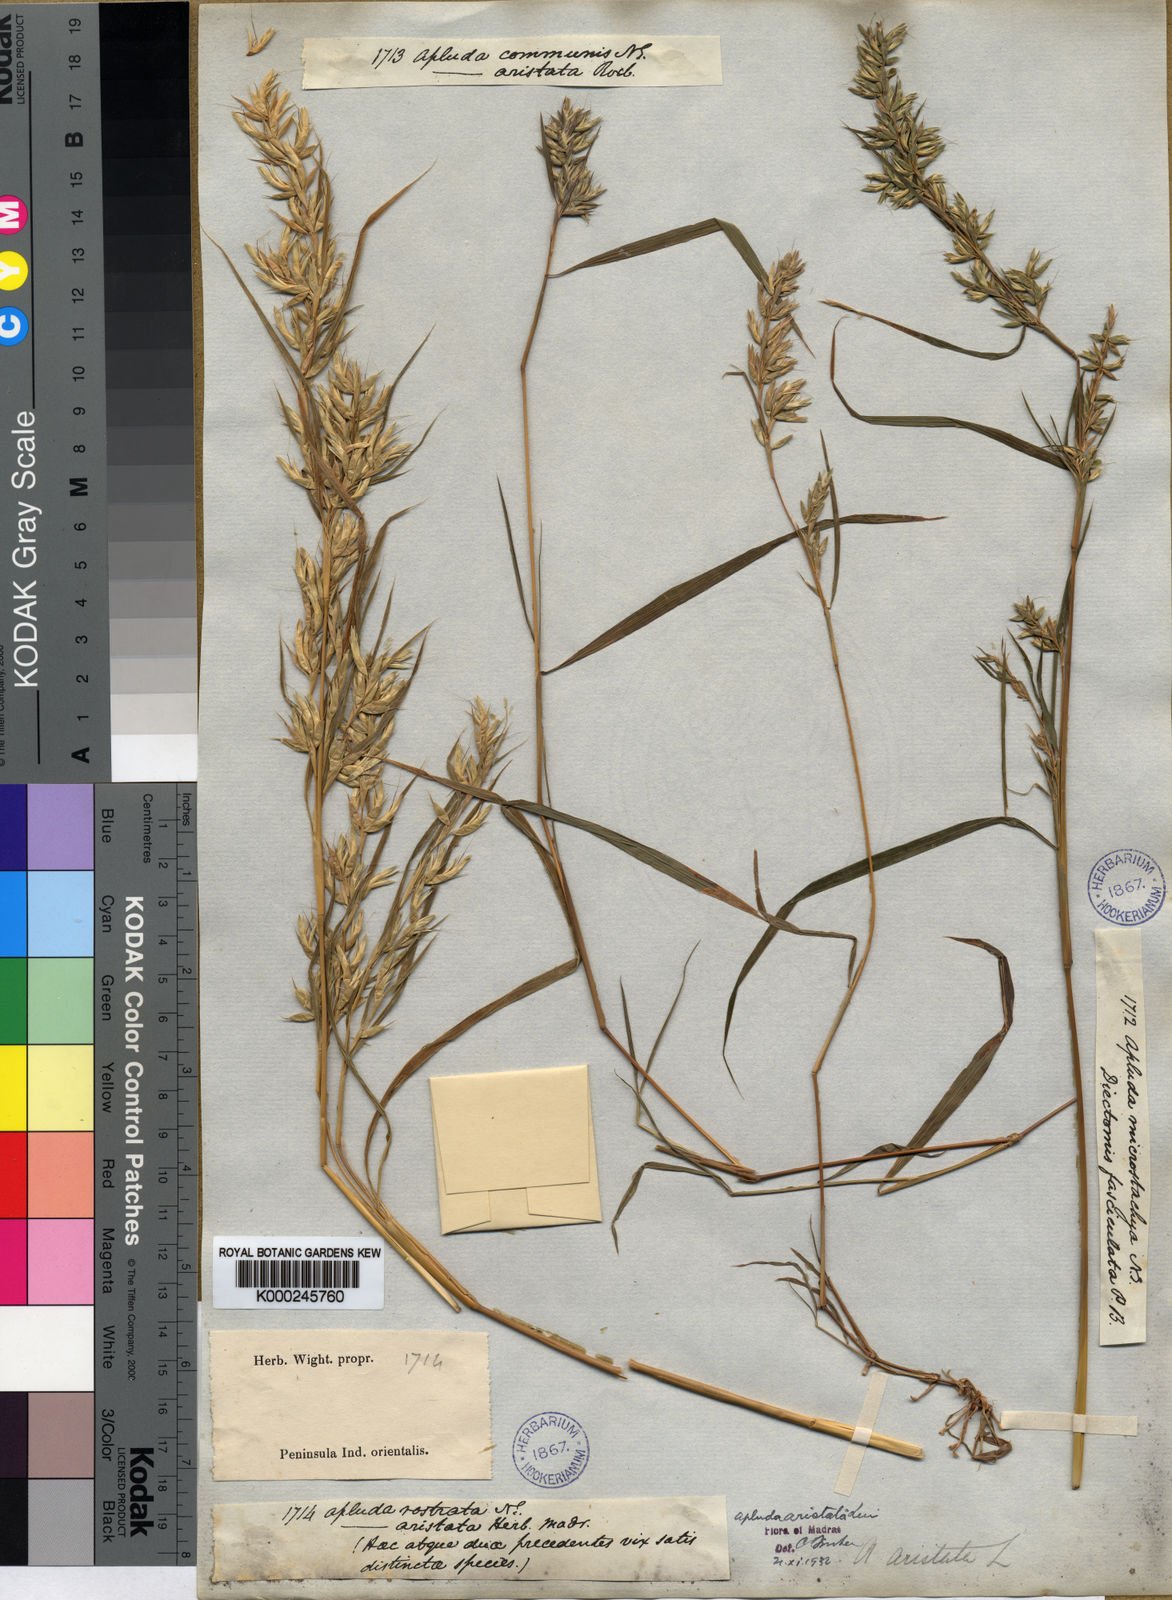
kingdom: Plantae
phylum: Tracheophyta
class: Liliopsida
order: Poales
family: Poaceae
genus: Apluda
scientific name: Apluda mutica
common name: Mauritian grass
